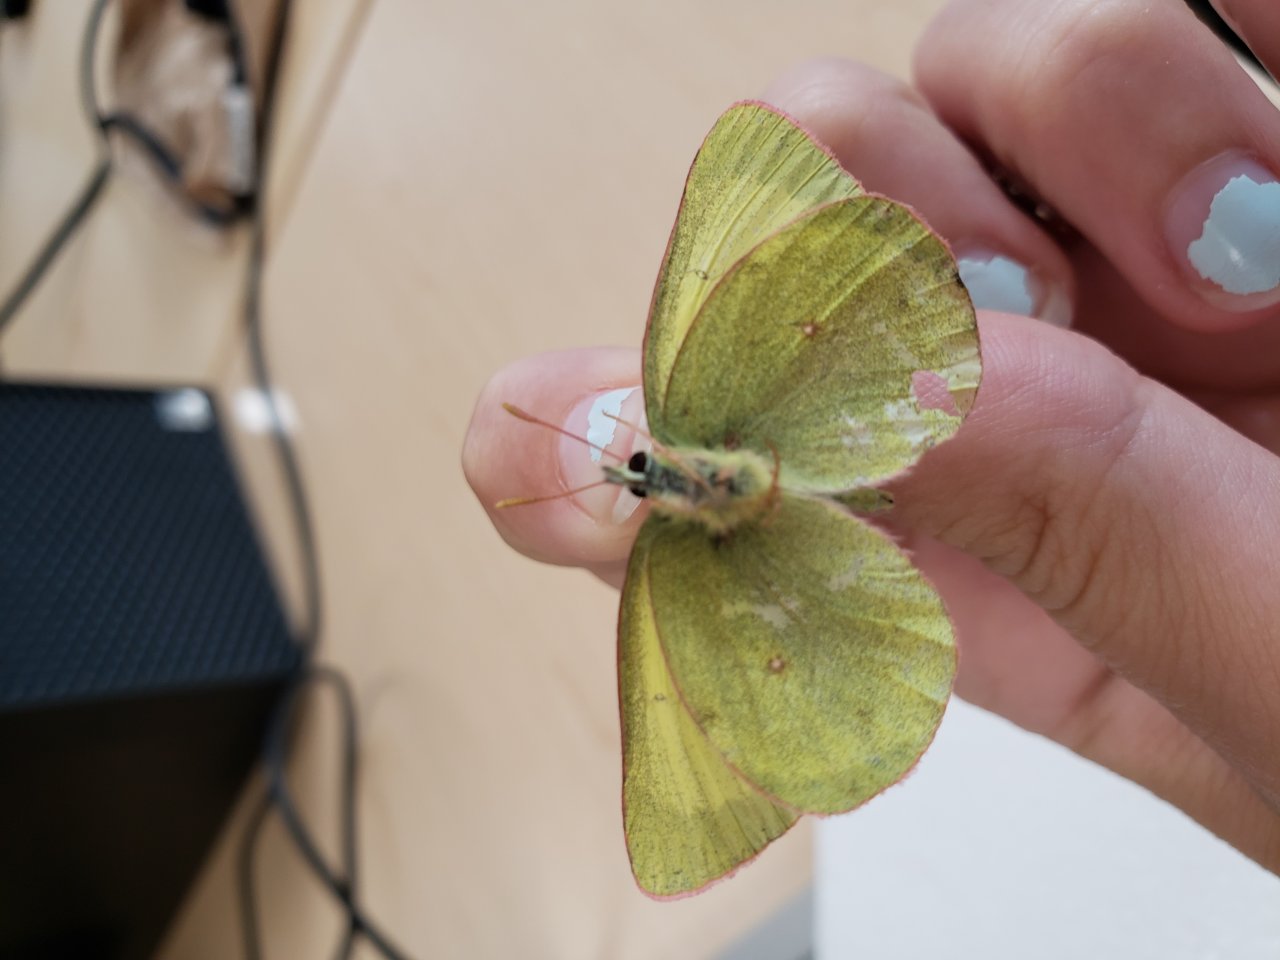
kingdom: Animalia
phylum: Arthropoda
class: Insecta
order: Lepidoptera
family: Pieridae
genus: Colias
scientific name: Colias pelidne
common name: Pelidne Sulphur
